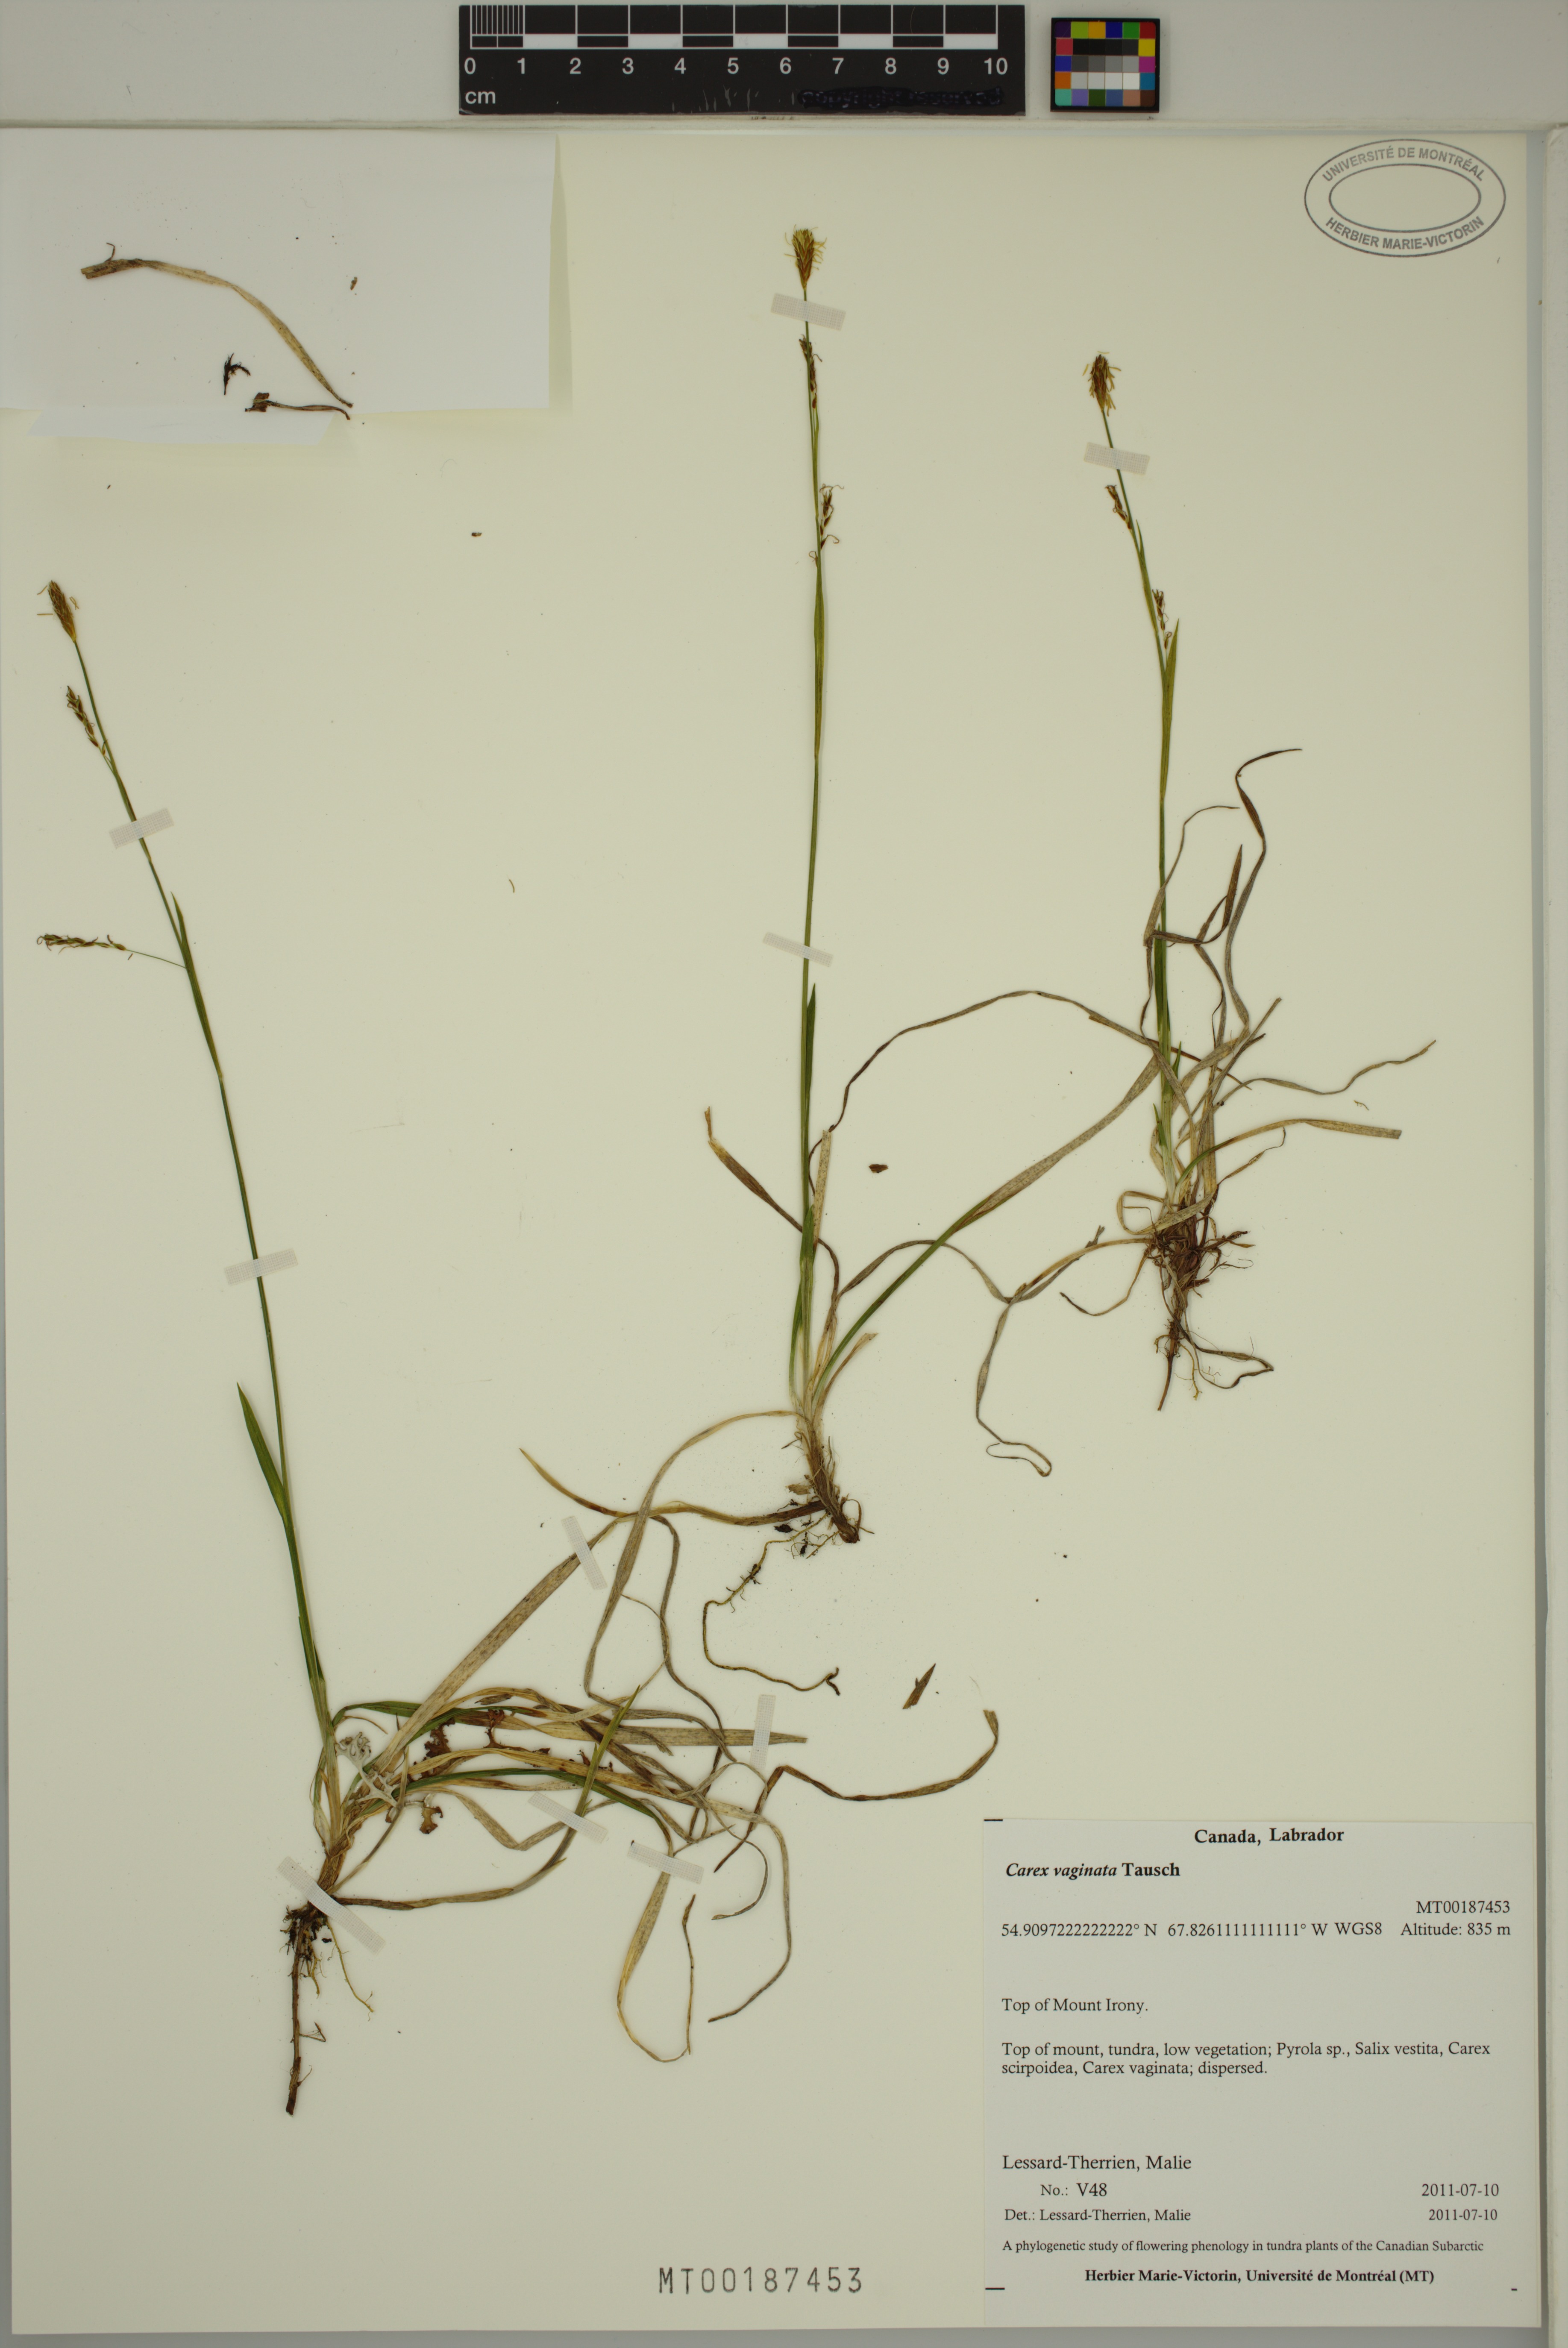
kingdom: Plantae
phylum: Tracheophyta
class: Liliopsida
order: Poales
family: Cyperaceae
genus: Carex
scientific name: Carex vaginata
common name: Sheathed sedge
